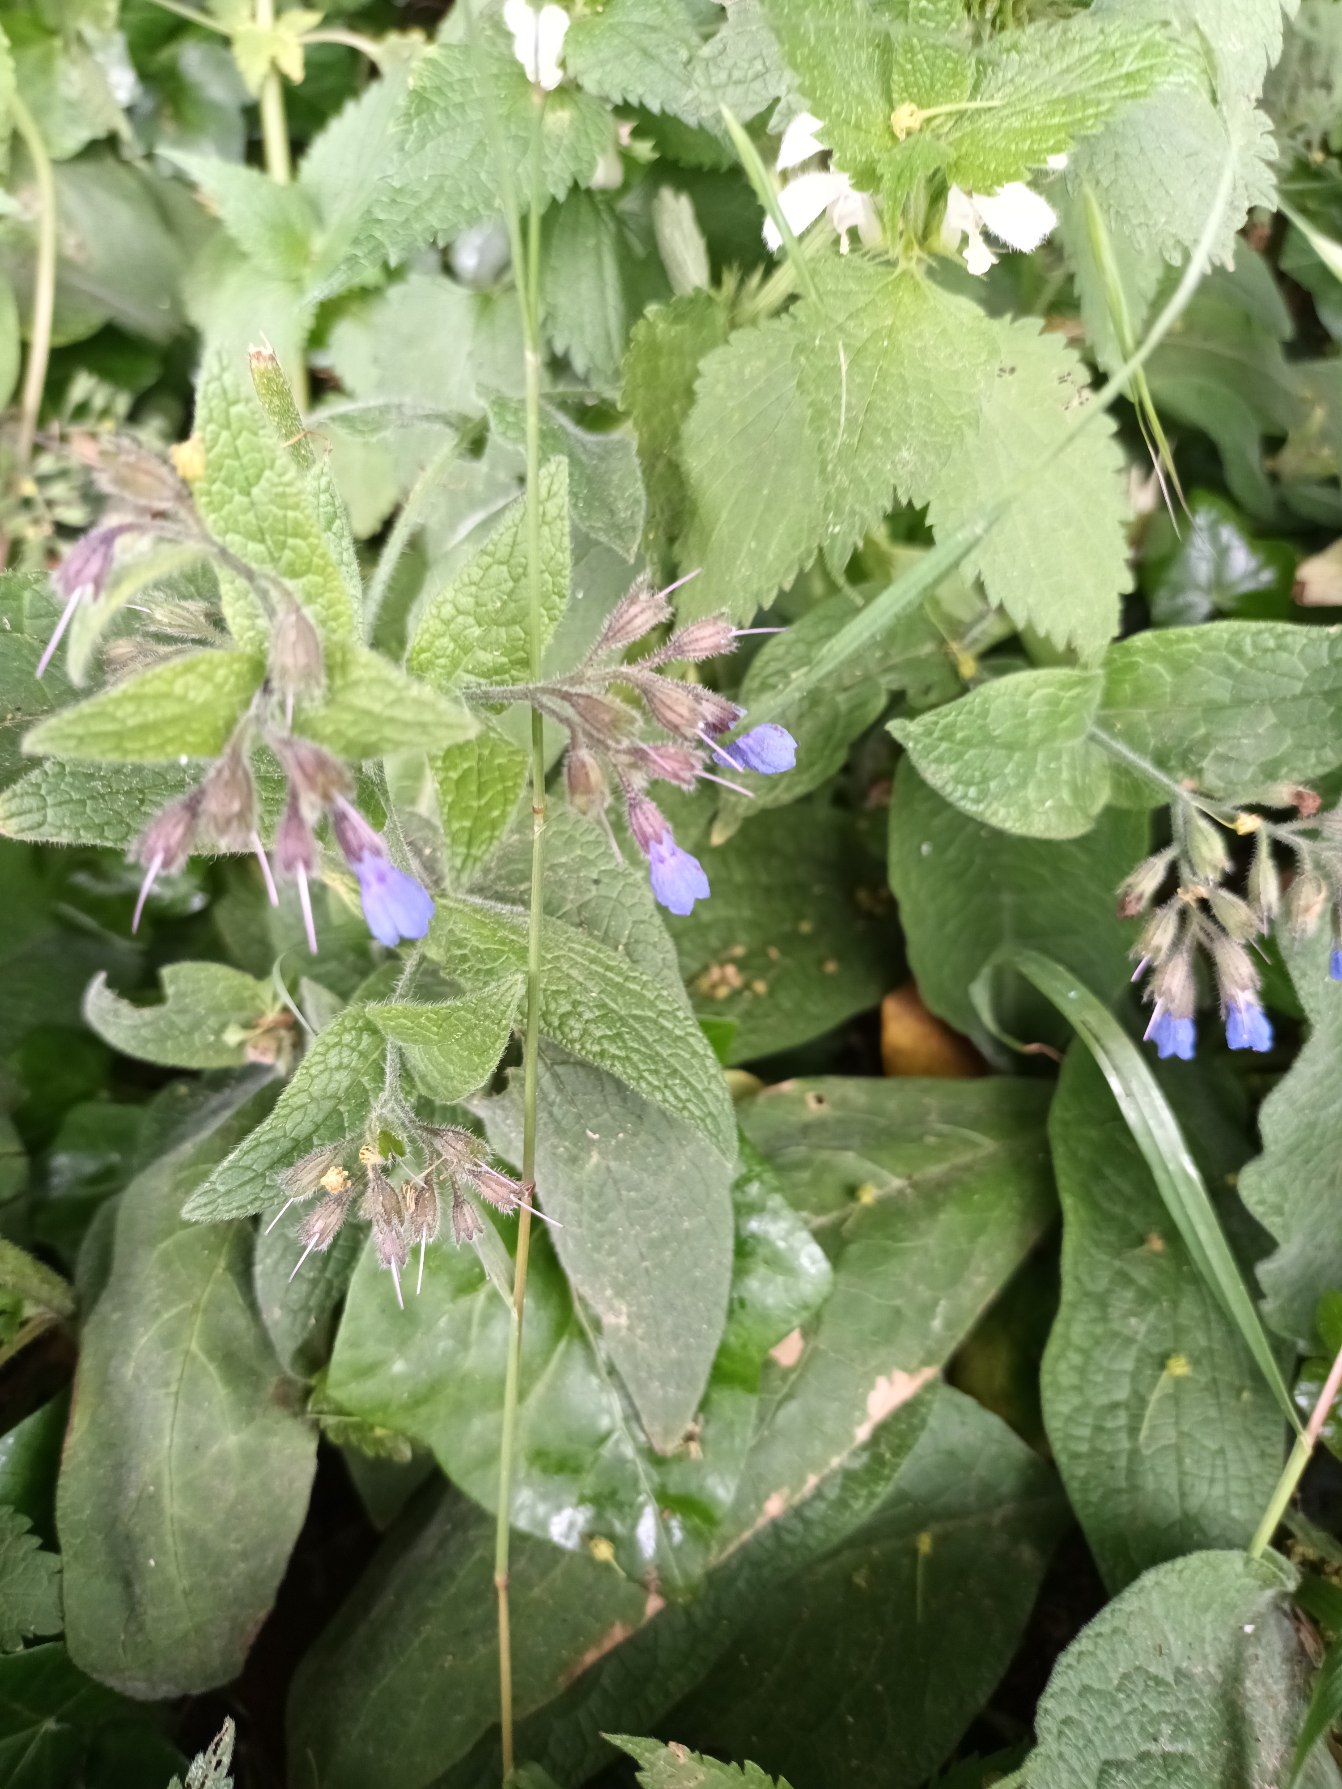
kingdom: Plantae
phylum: Tracheophyta
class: Magnoliopsida
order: Boraginales
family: Boraginaceae
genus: Symphytum
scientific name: Symphytum caucasicum
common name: Kaukasisk kulsukker
